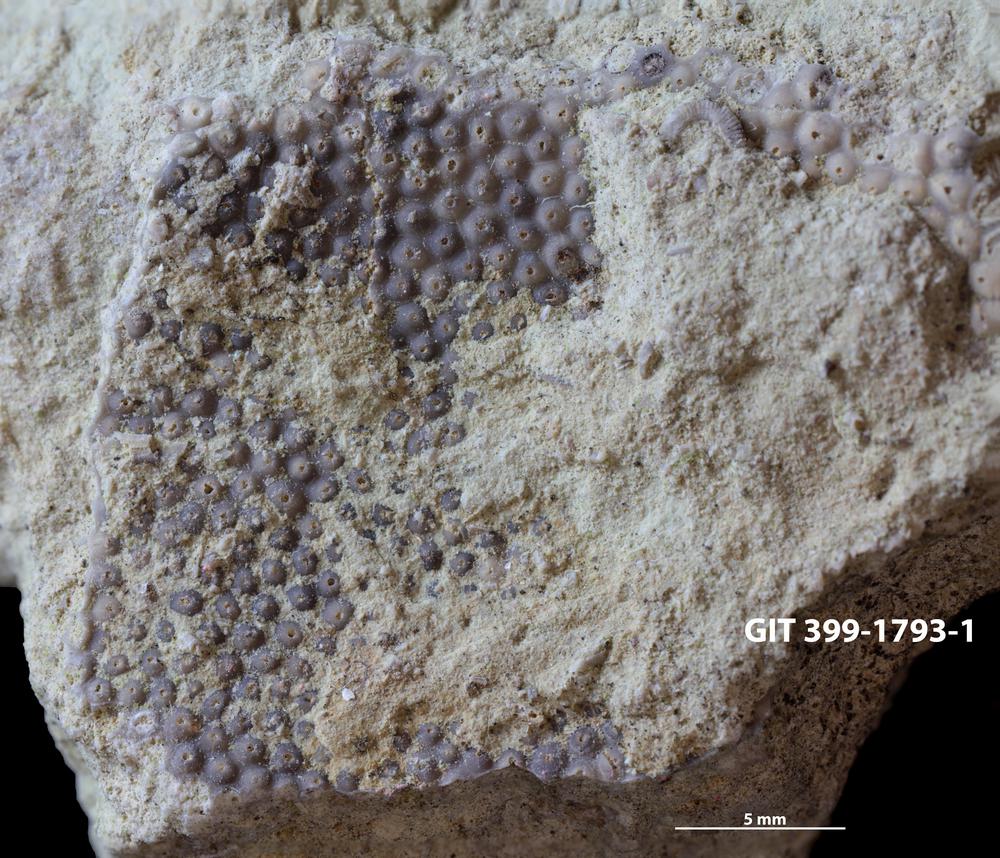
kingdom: Plantae
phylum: Chlorophyta
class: Ulvophyceae
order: Cyclocrinales
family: Cyclocrinaceae
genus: Mastopora
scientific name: Mastopora concava
